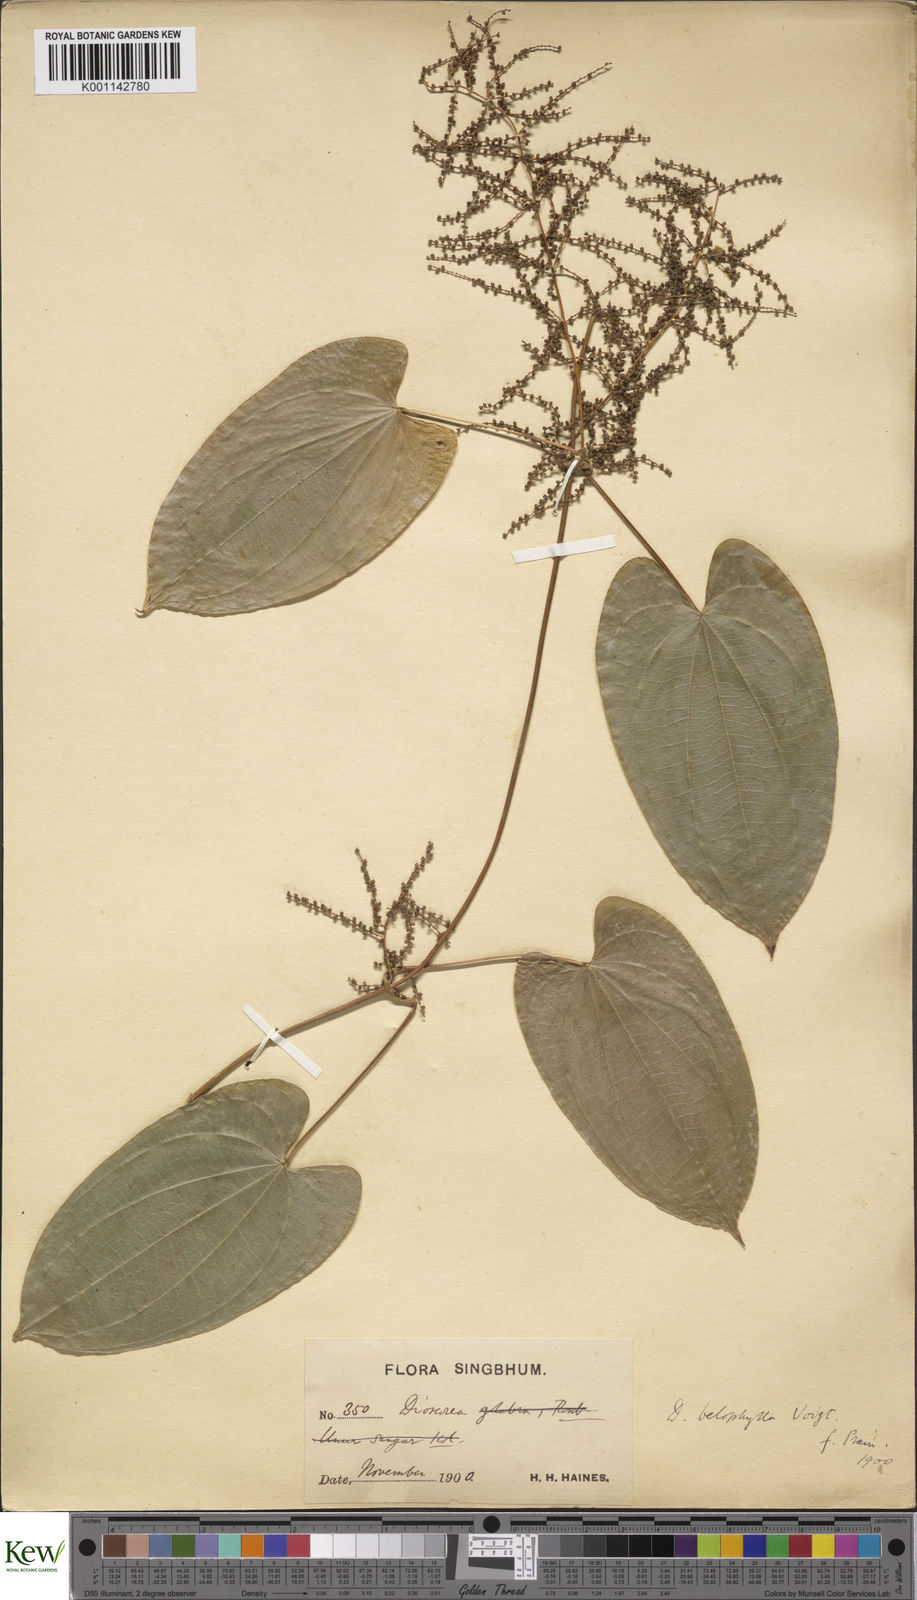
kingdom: Plantae
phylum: Tracheophyta
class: Liliopsida
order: Dioscoreales
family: Dioscoreaceae
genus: Dioscorea
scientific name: Dioscorea belophylla
